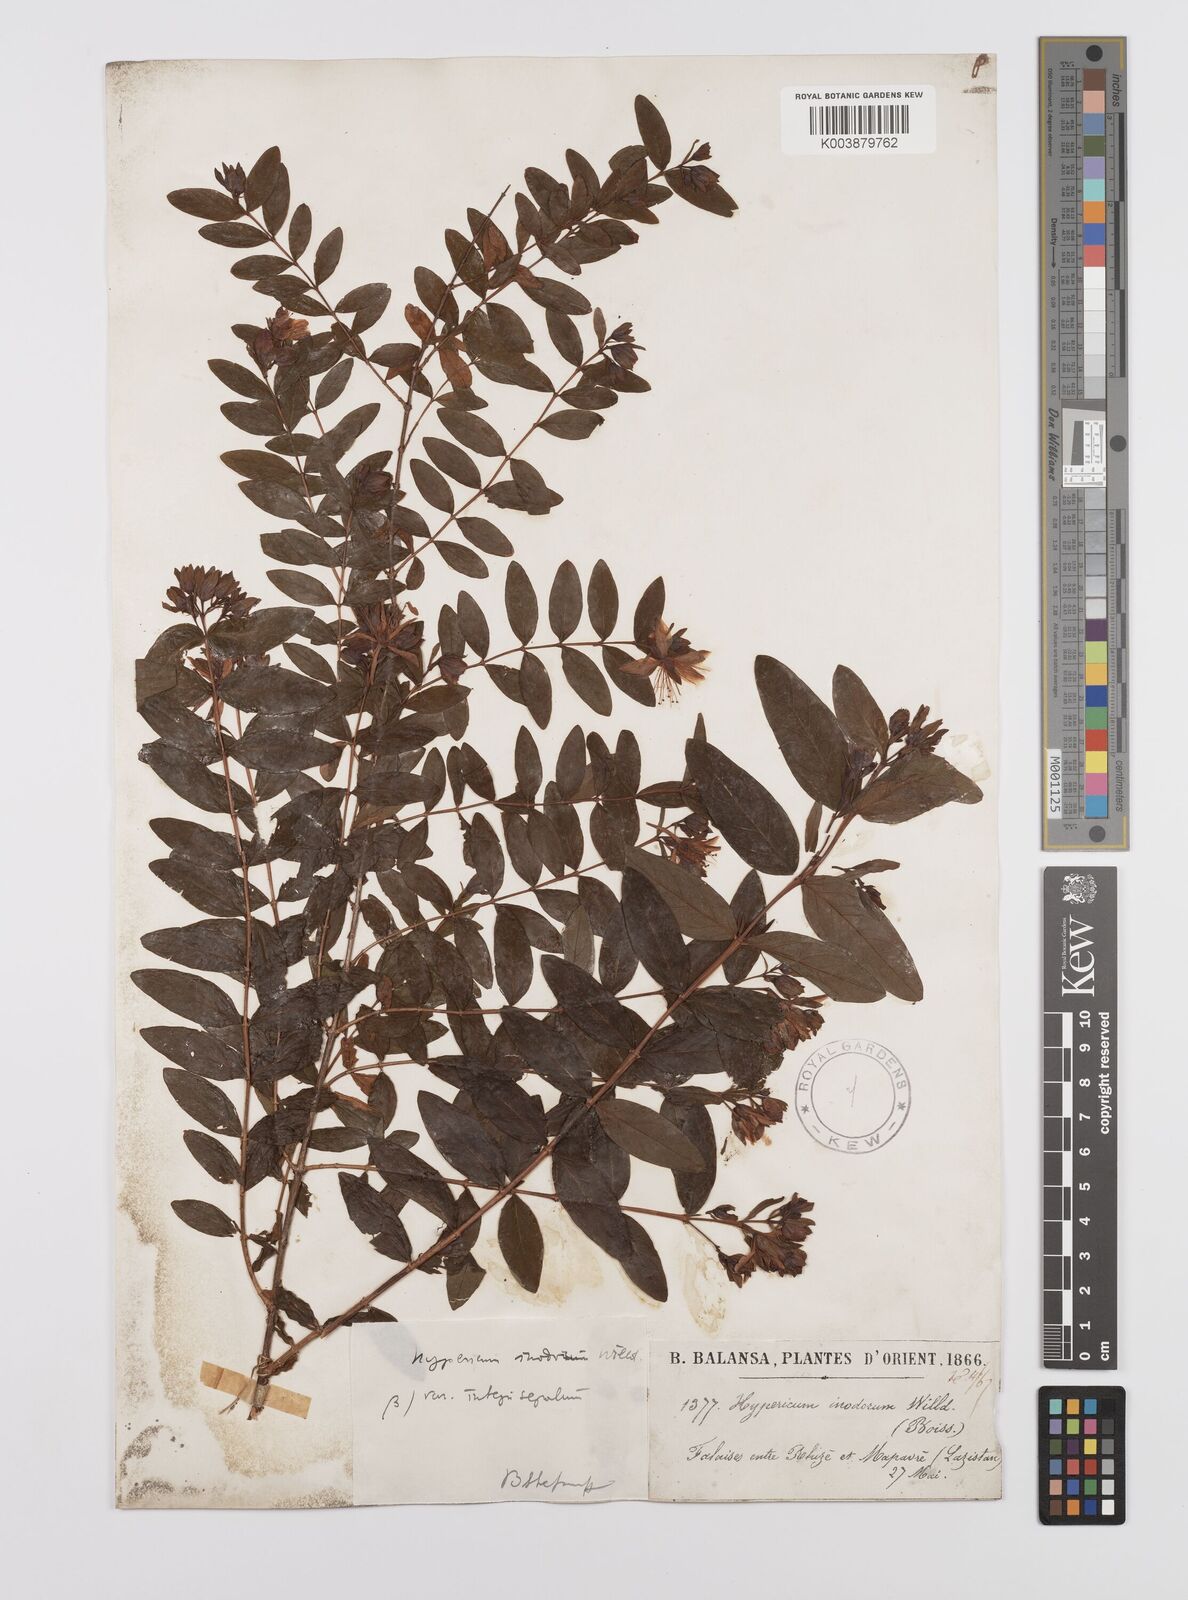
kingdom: Plantae
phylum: Tracheophyta
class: Magnoliopsida
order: Malpighiales
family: Hypericaceae
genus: Hypericum
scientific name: Hypericum xylosteifolium
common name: Turkish tutsan
